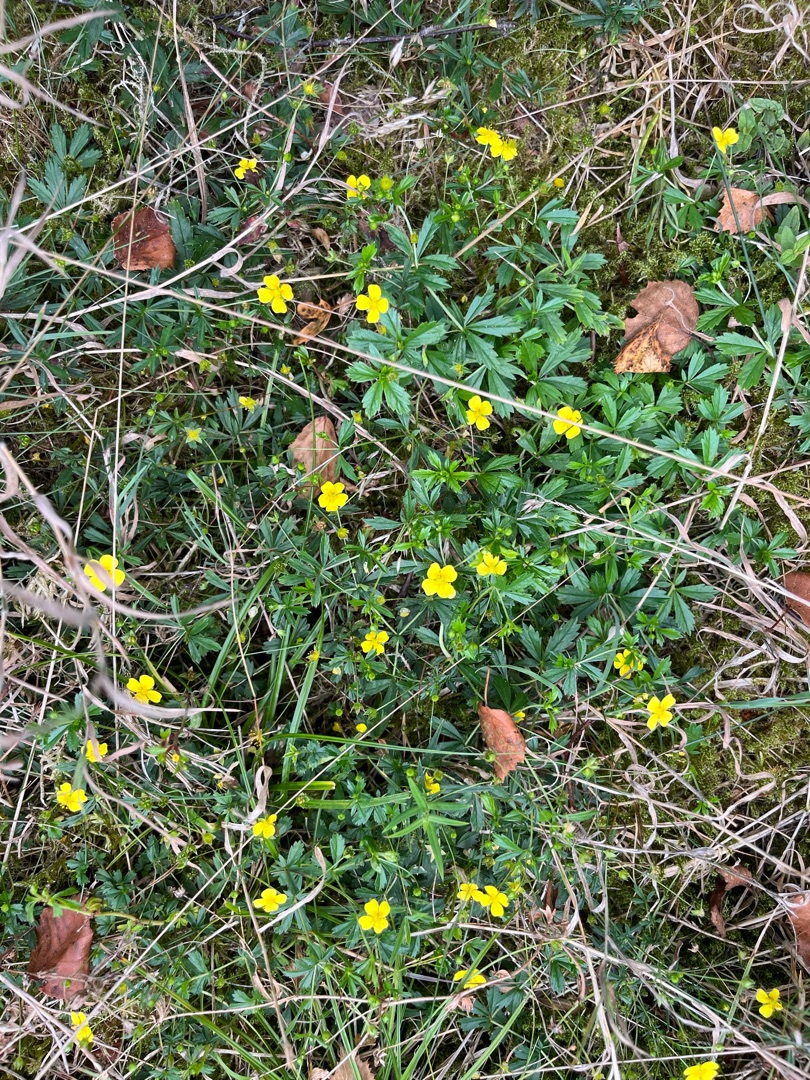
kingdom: Plantae
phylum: Tracheophyta
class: Magnoliopsida
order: Rosales
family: Rosaceae
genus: Potentilla
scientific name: Potentilla erecta
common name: Tormentil
